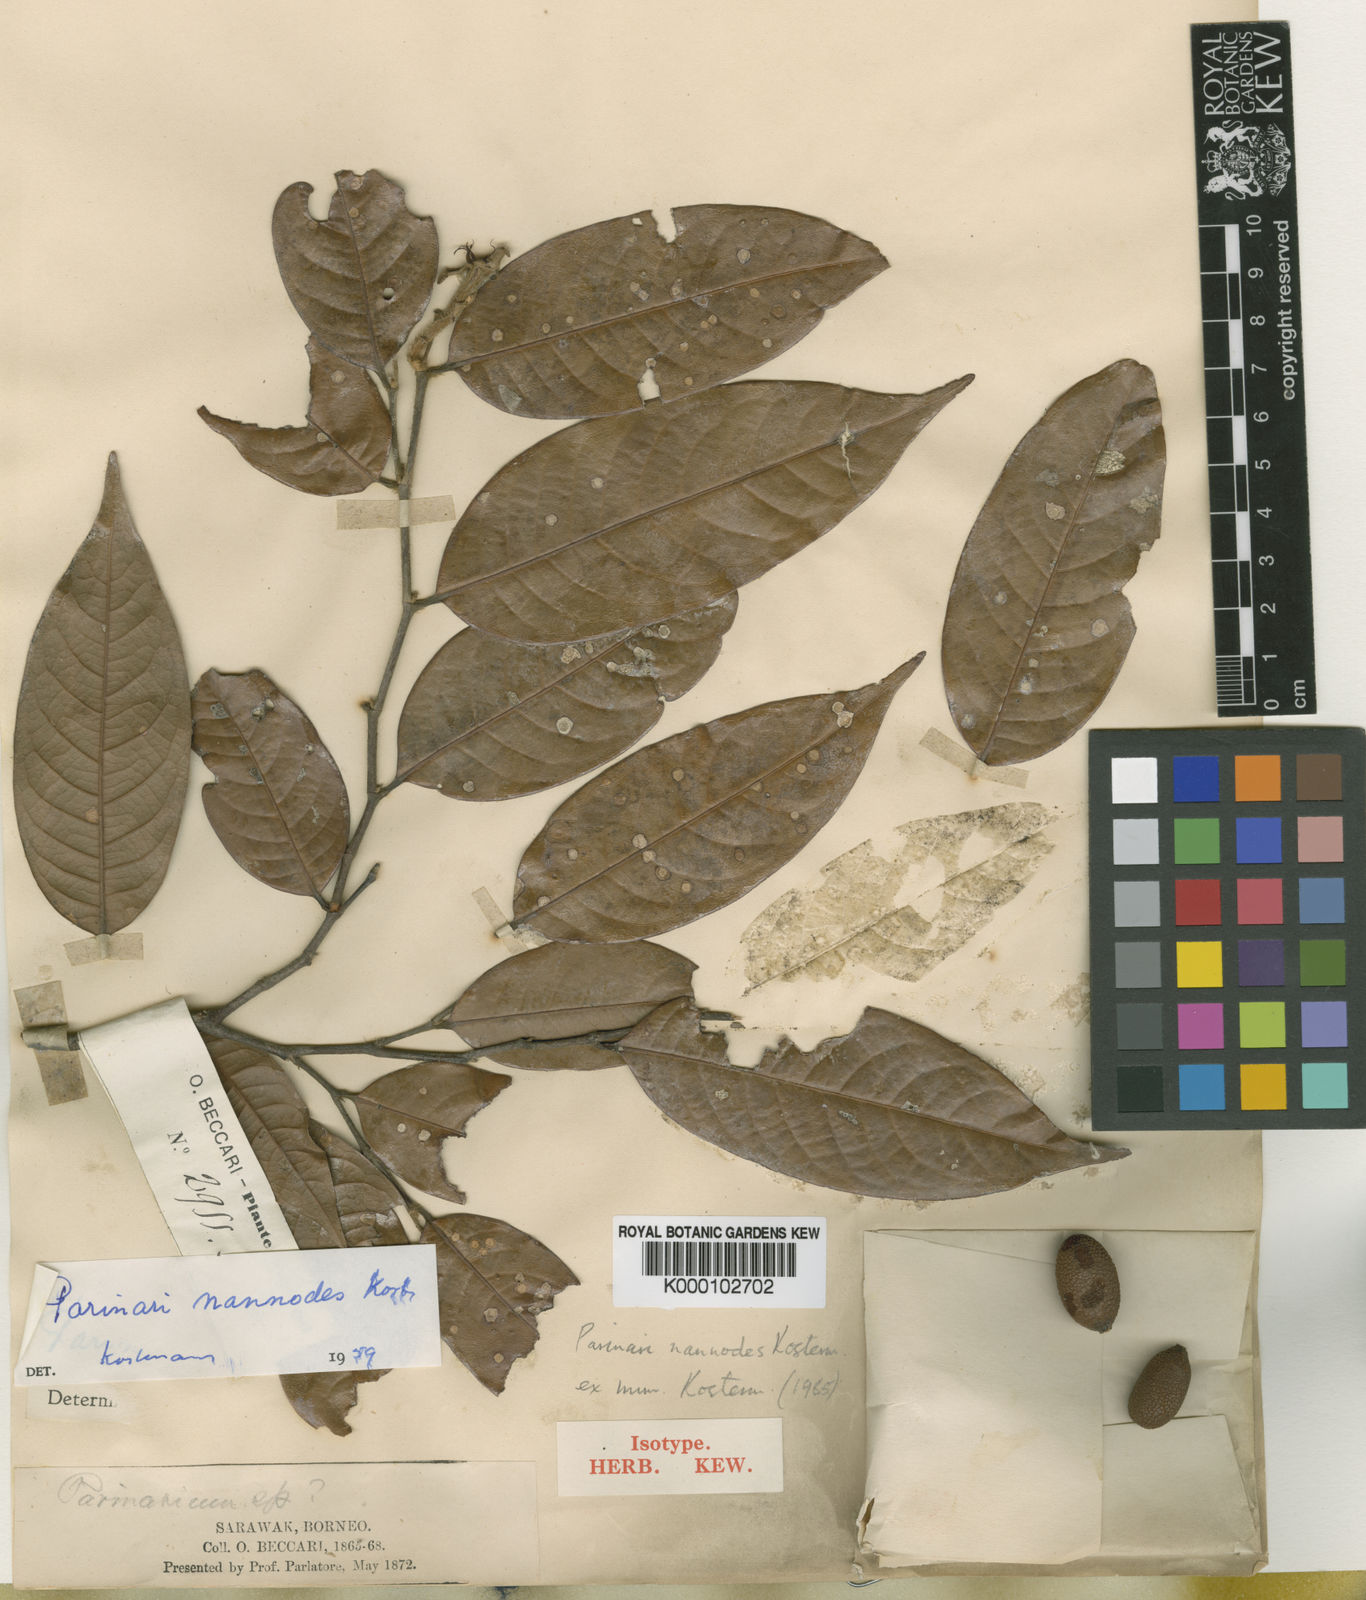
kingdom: Plantae
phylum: Tracheophyta
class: Magnoliopsida
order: Malpighiales
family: Chrysobalanaceae
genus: Atuna
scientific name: Atuna nannodes
